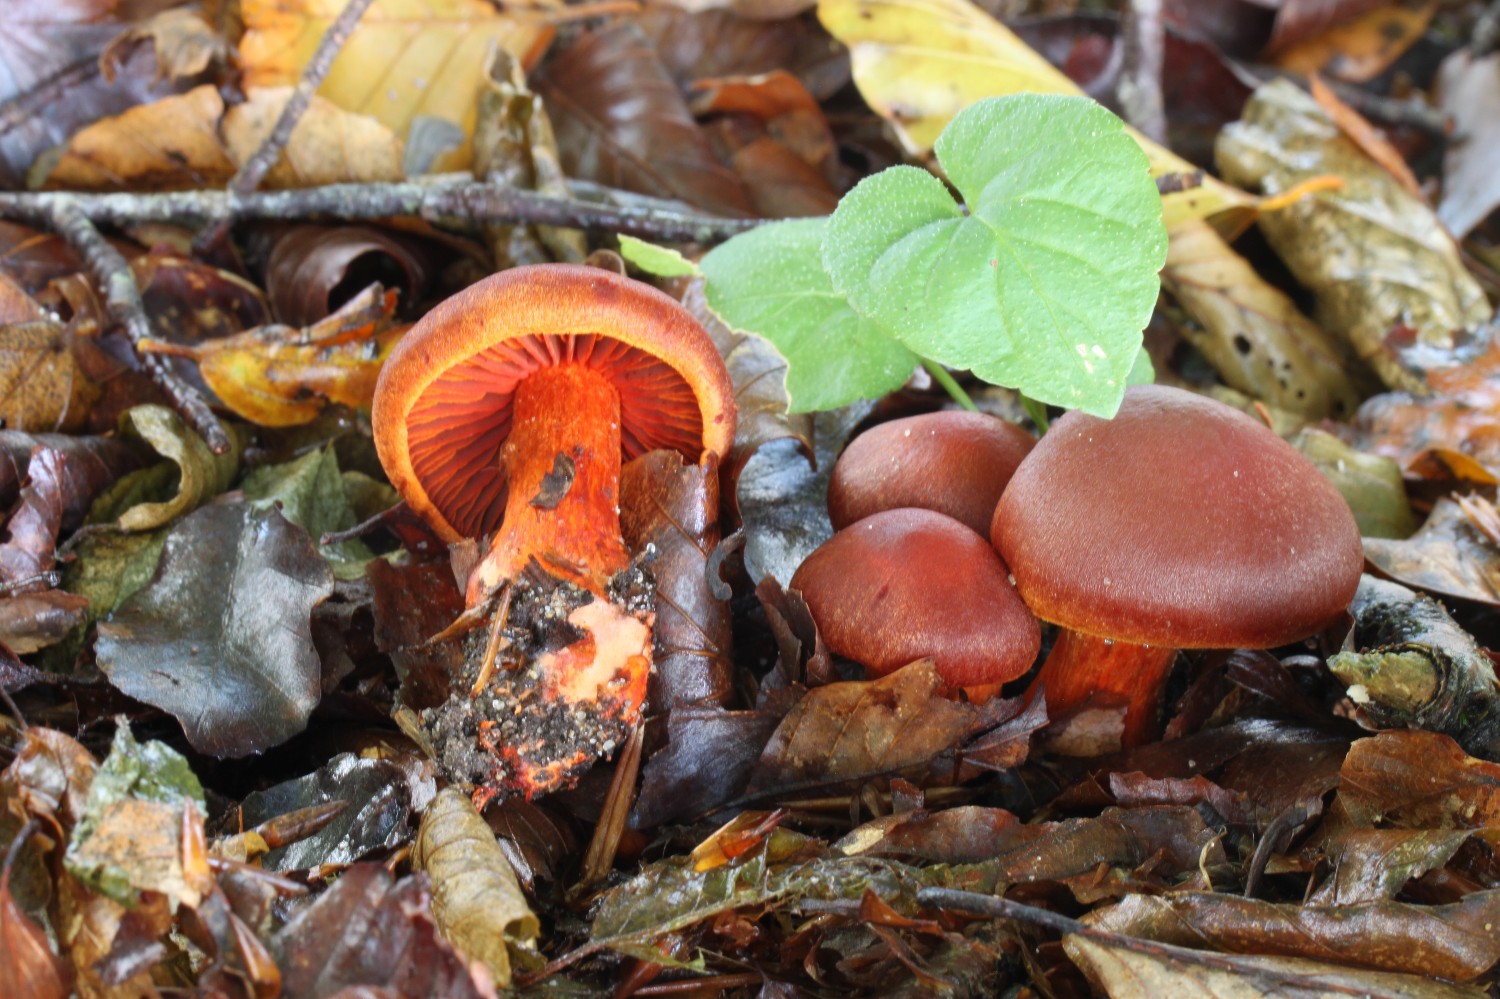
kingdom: Fungi
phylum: Basidiomycota
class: Agaricomycetes
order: Agaricales
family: Cortinariaceae
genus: Cortinarius
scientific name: Cortinarius cinnabarinus
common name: cinnober-slørhat
